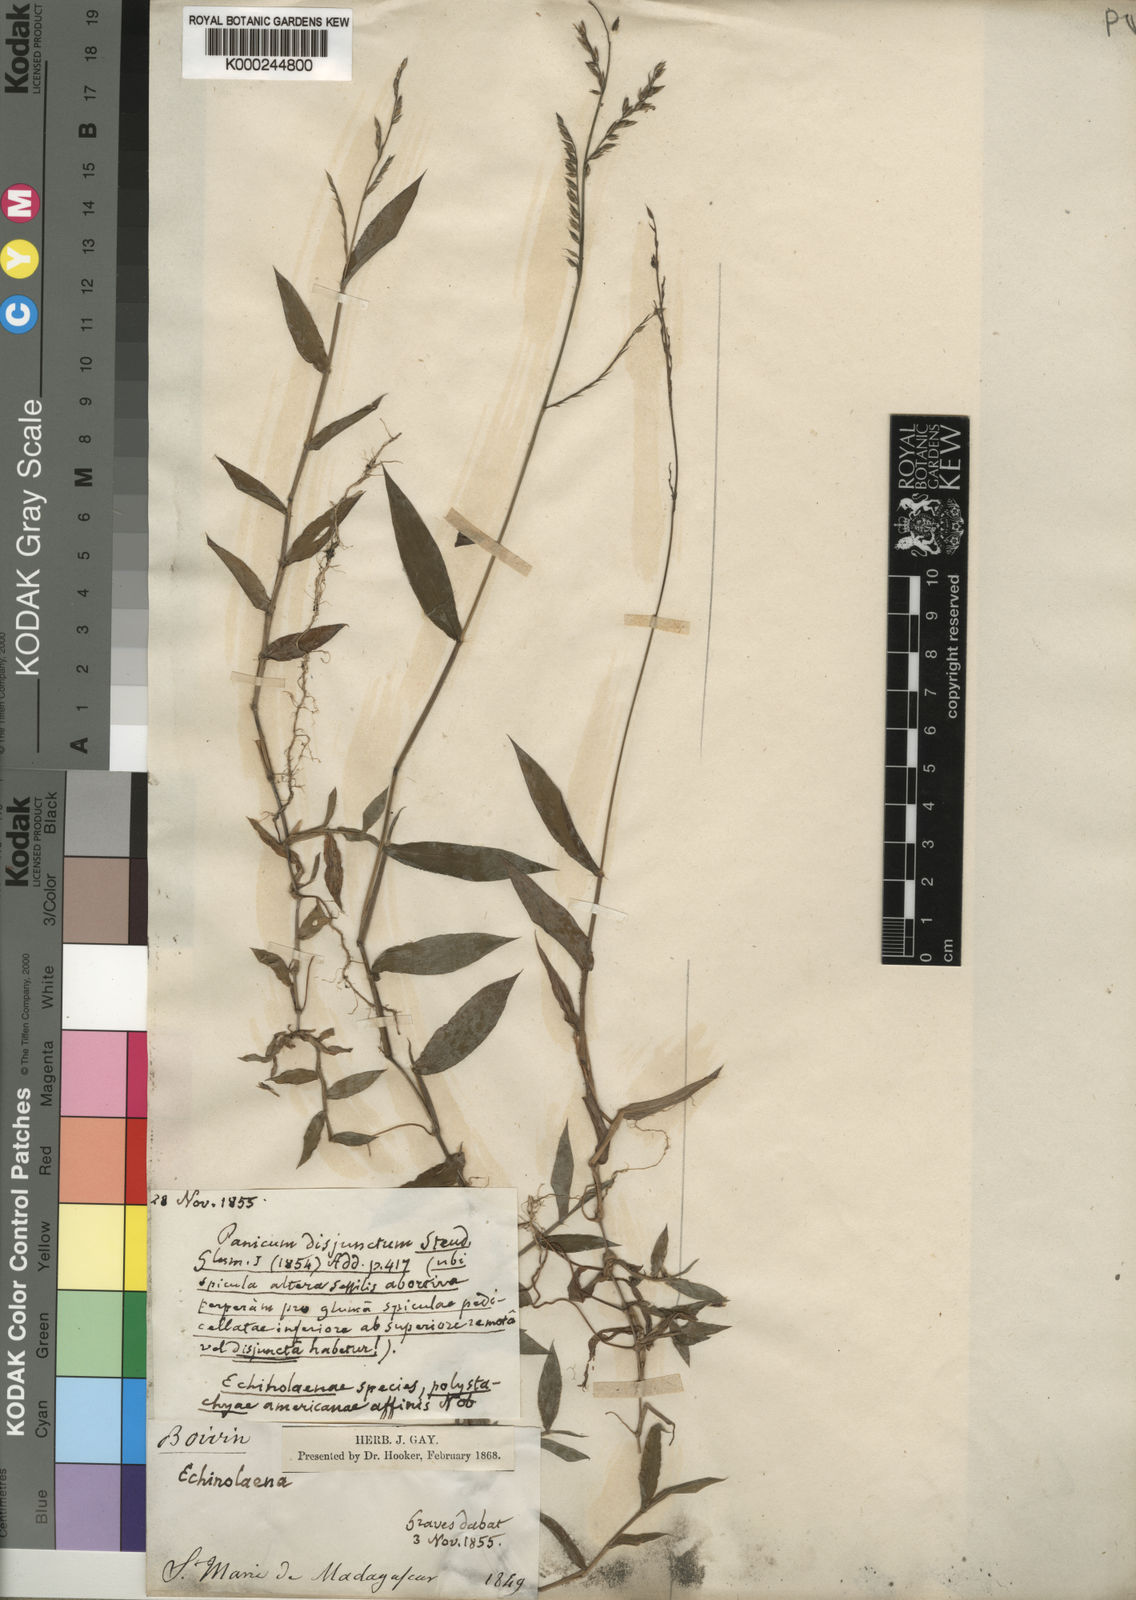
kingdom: Plantae
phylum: Tracheophyta
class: Liliopsida
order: Poales
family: Poaceae
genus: Pseudechinolaena
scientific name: Pseudechinolaena polystachya
